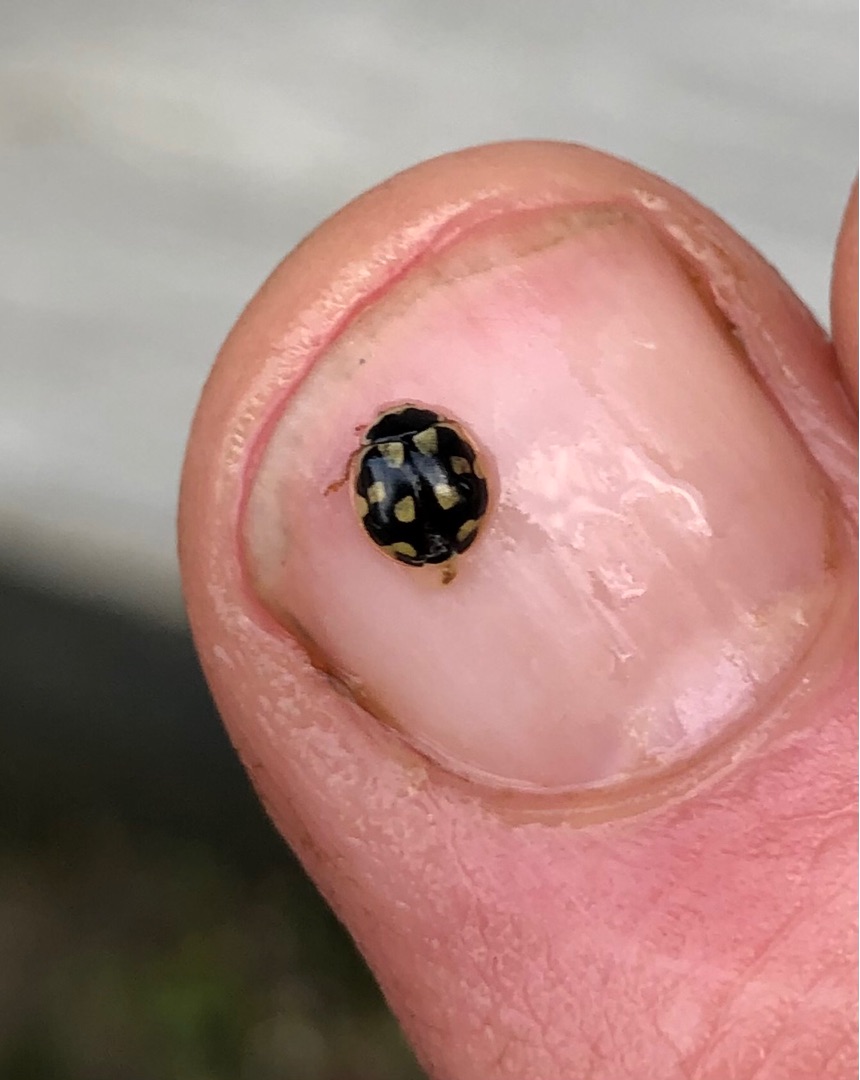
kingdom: Animalia
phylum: Arthropoda
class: Insecta
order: Coleoptera
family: Coccinellidae
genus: Propylaea
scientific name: Propylaea quatuordecimpunctata
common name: Skakbræt
